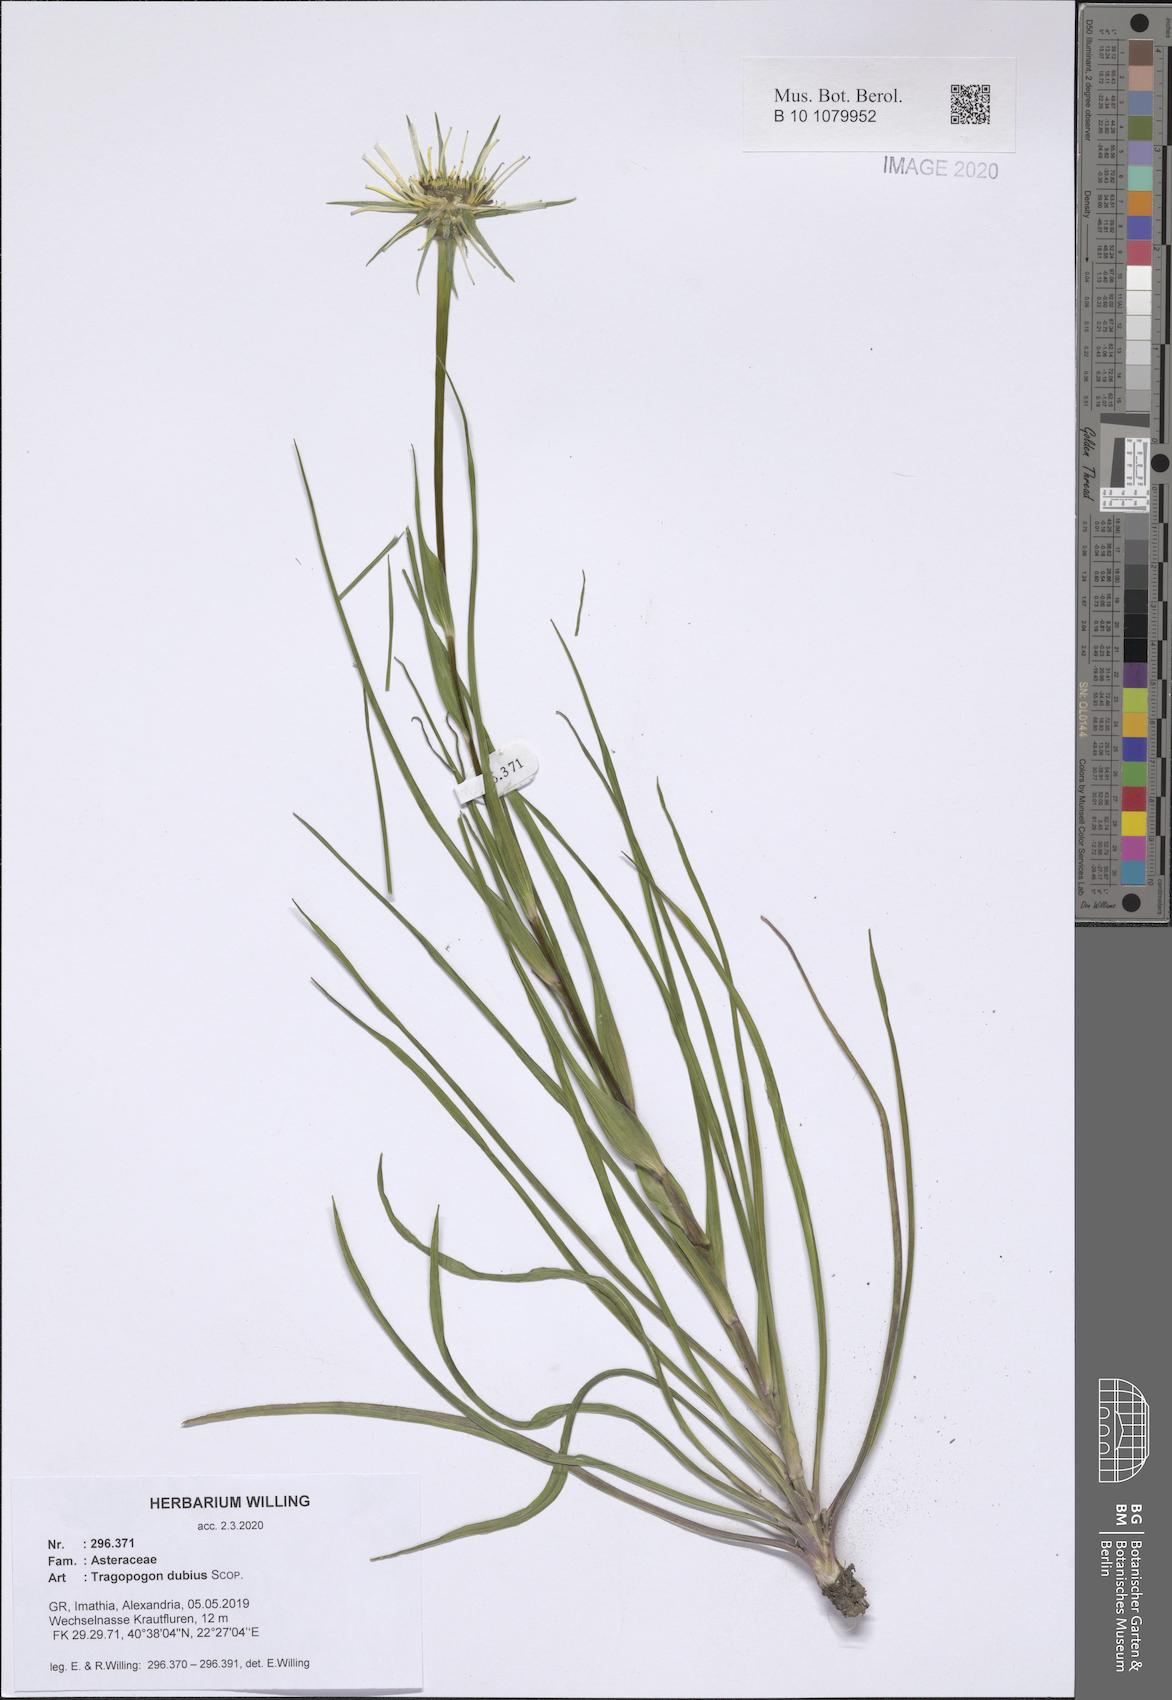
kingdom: Plantae
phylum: Tracheophyta
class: Magnoliopsida
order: Asterales
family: Asteraceae
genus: Tragopogon
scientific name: Tragopogon dubius
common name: Yellow salsify
